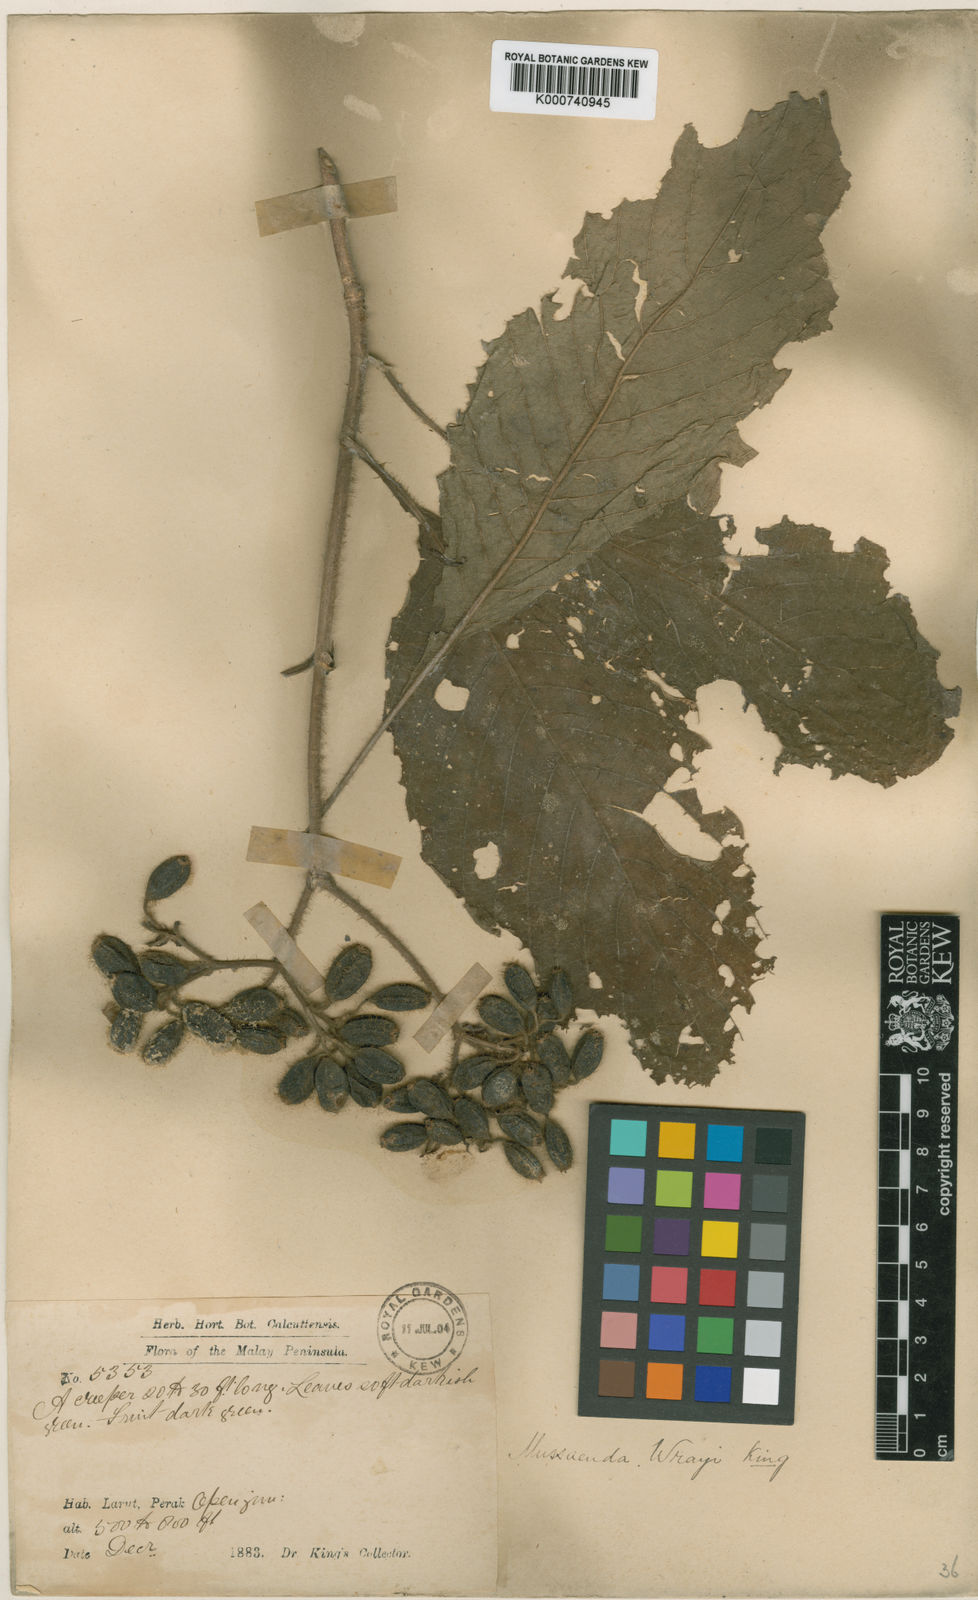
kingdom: Plantae
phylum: Tracheophyta
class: Magnoliopsida
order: Gentianales
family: Rubiaceae
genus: Mussaenda
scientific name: Mussaenda wrayi
